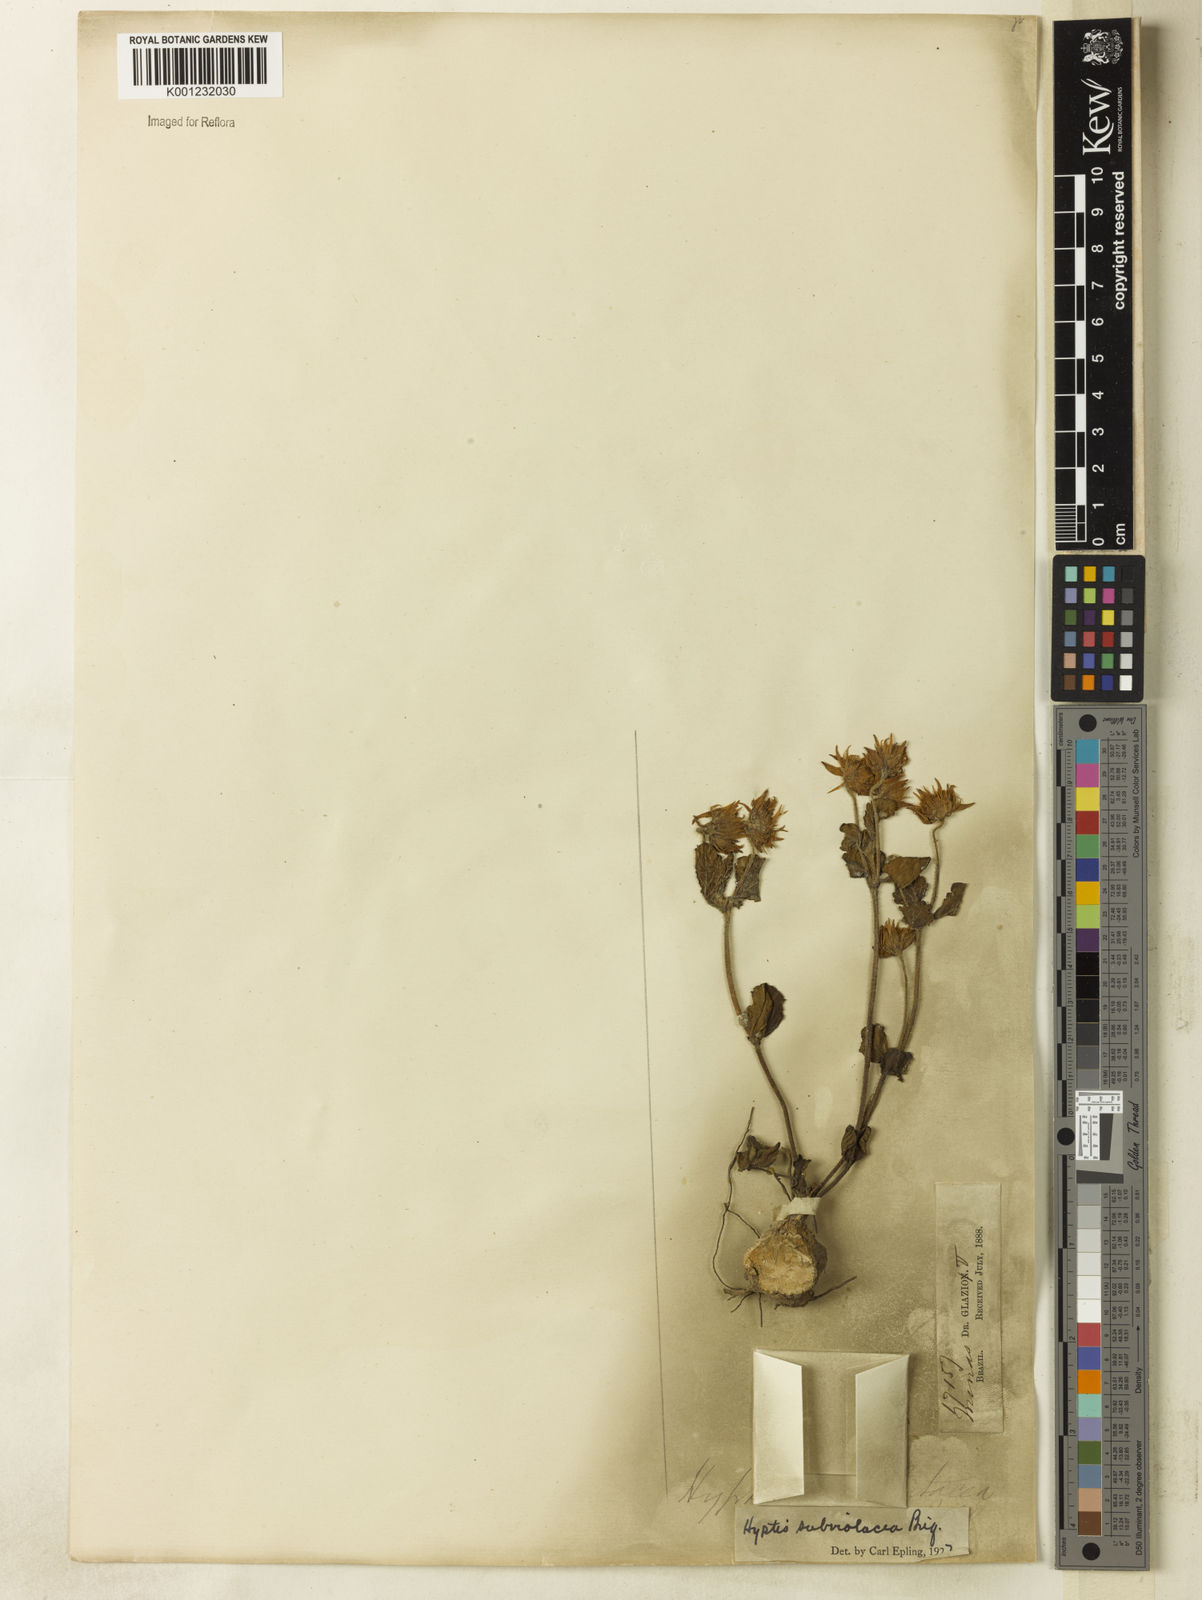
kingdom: Plantae
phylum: Tracheophyta
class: Magnoliopsida
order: Lamiales
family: Lamiaceae
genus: Hyptis
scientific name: Hyptis subviolacea
